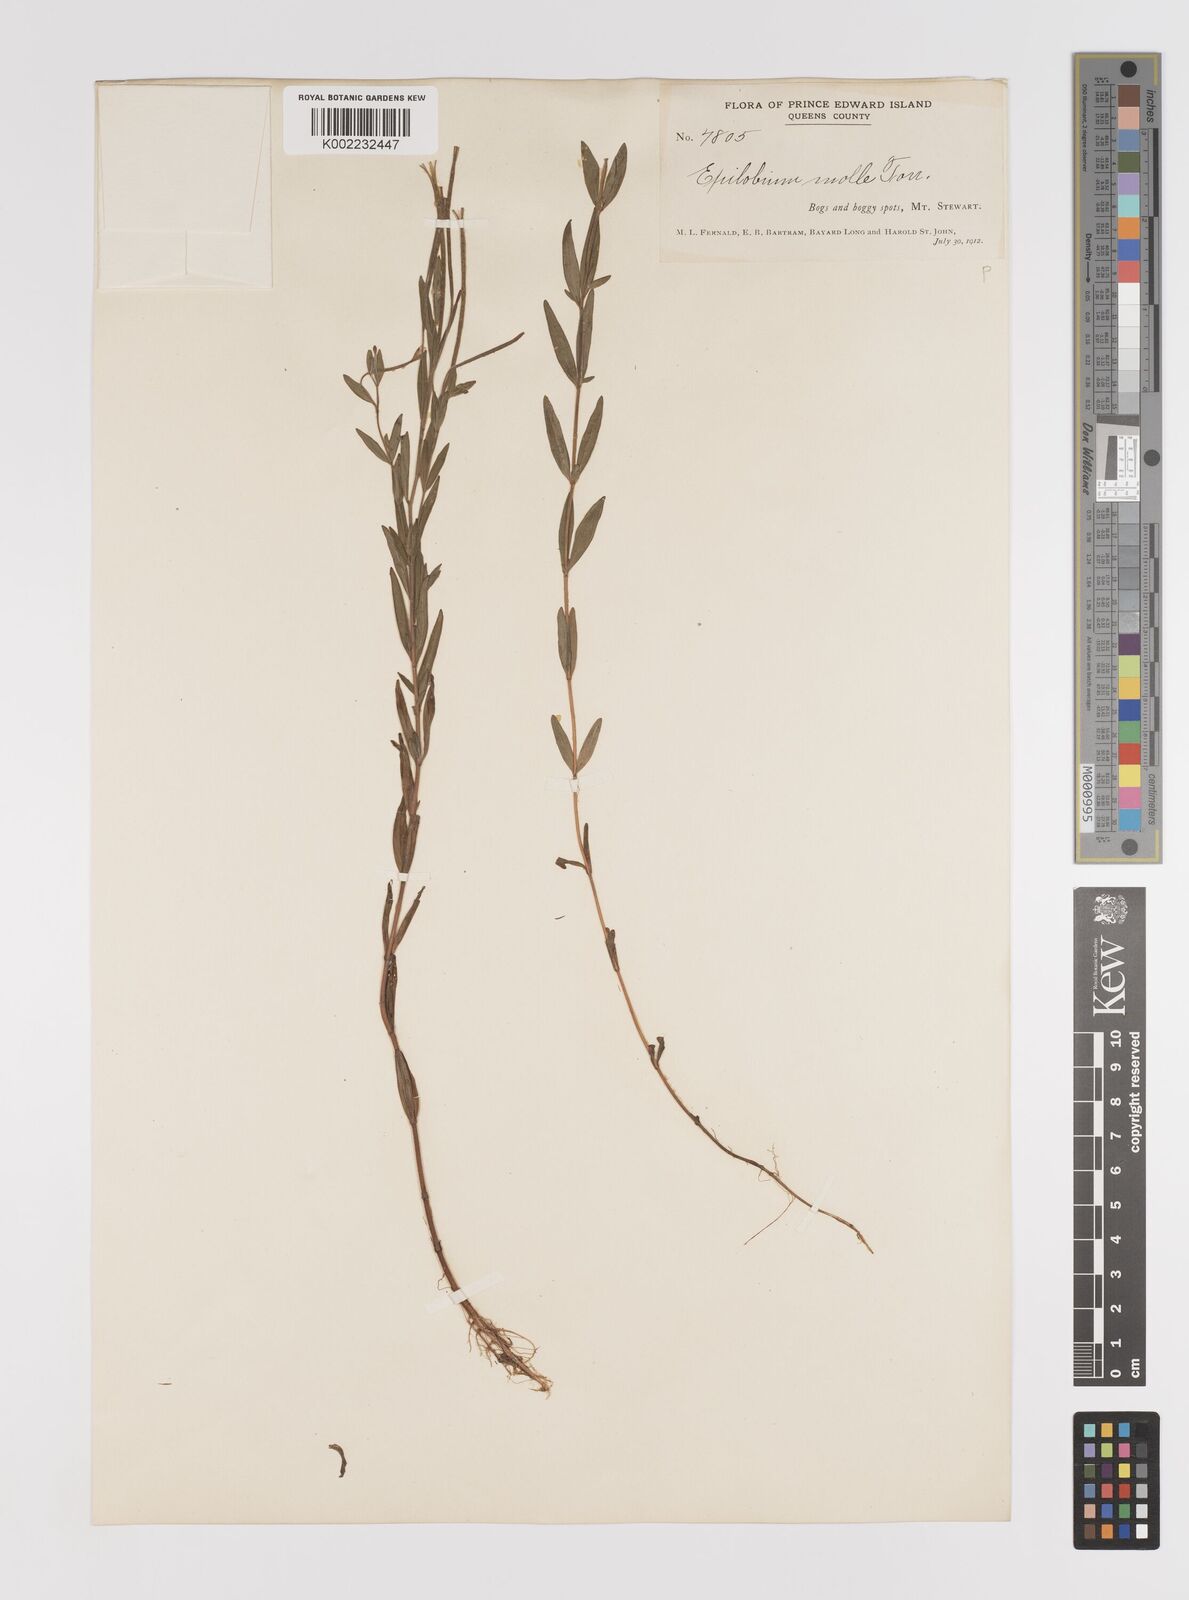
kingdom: Plantae
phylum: Tracheophyta
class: Magnoliopsida
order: Myrtales
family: Onagraceae
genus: Epilobium
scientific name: Epilobium densum
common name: Downy willowherb
